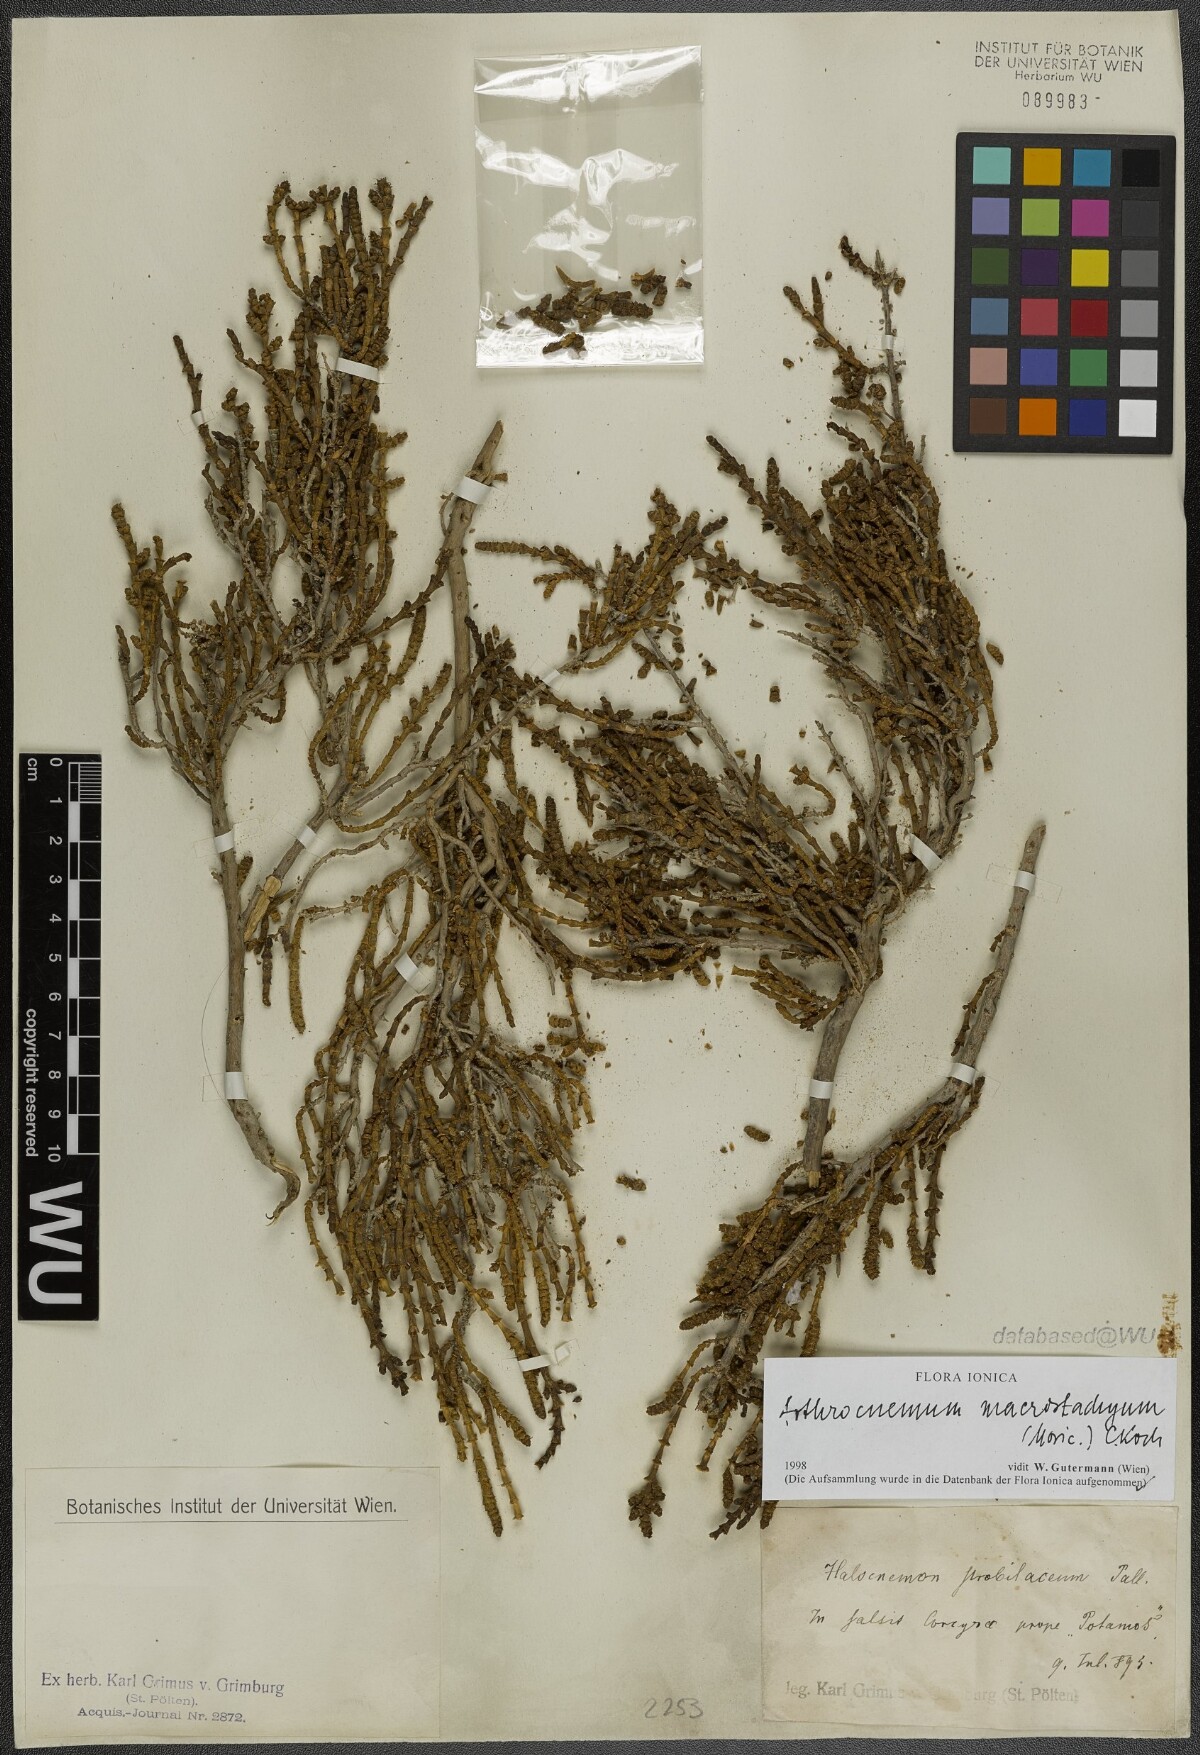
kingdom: Plantae
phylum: Tracheophyta
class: Magnoliopsida
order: Caryophyllales
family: Amaranthaceae
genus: Arthrocaulon
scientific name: Arthrocaulon macrostachyum
